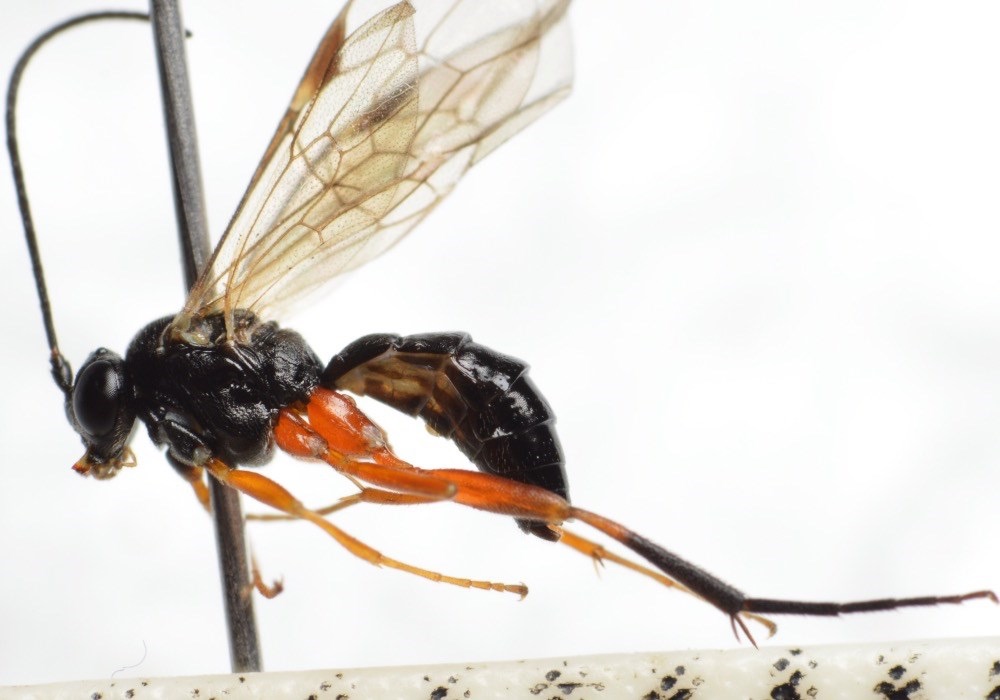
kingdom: Animalia
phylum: Arthropoda
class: Insecta
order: Hymenoptera
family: Ichneumonidae
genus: Woldstedtius
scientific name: Woldstedtius biguttatus
